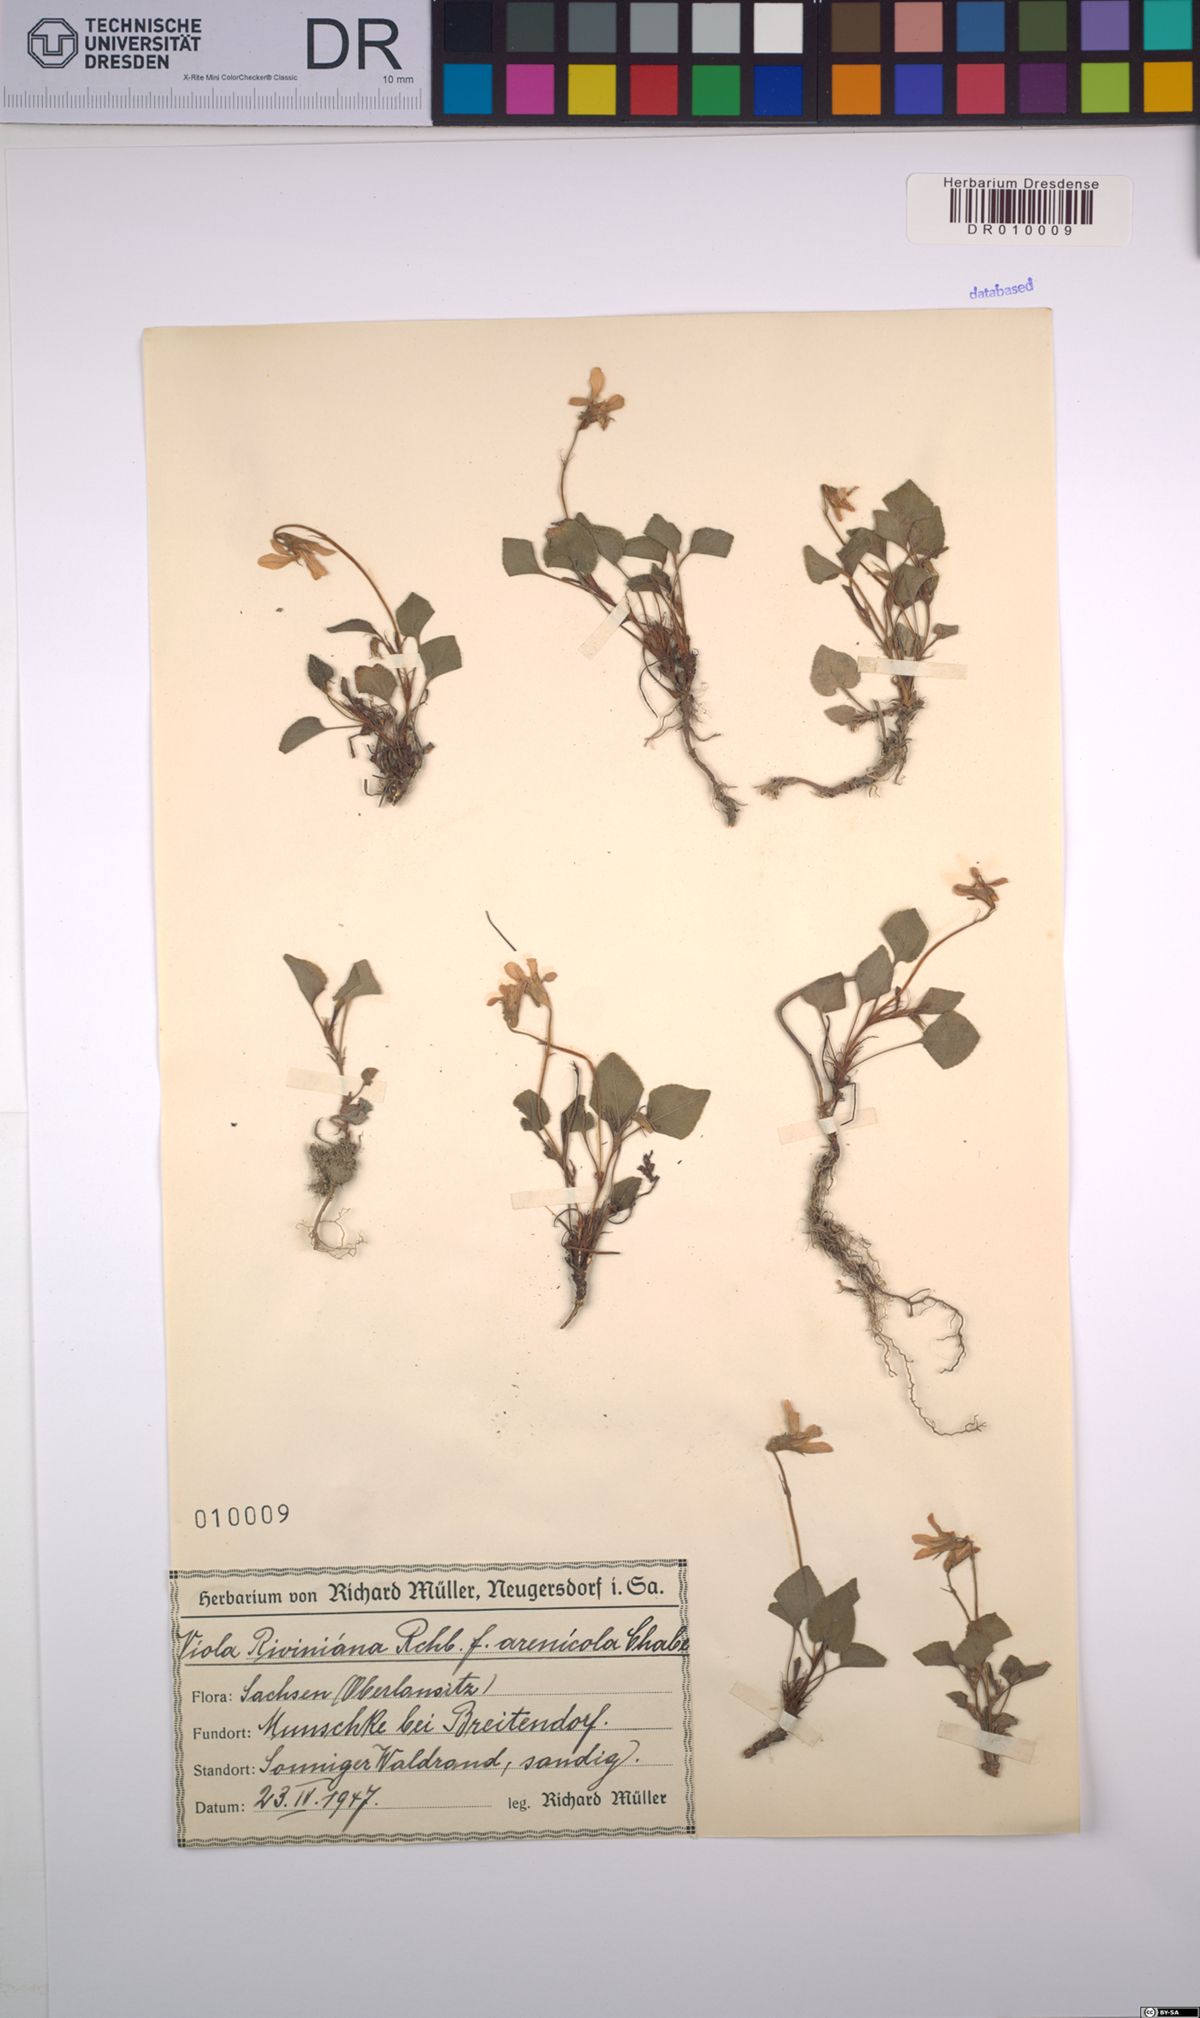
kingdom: Plantae
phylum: Tracheophyta
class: Magnoliopsida
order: Malpighiales
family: Violaceae
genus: Viola
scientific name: Viola riviniana
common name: Common dog-violet
